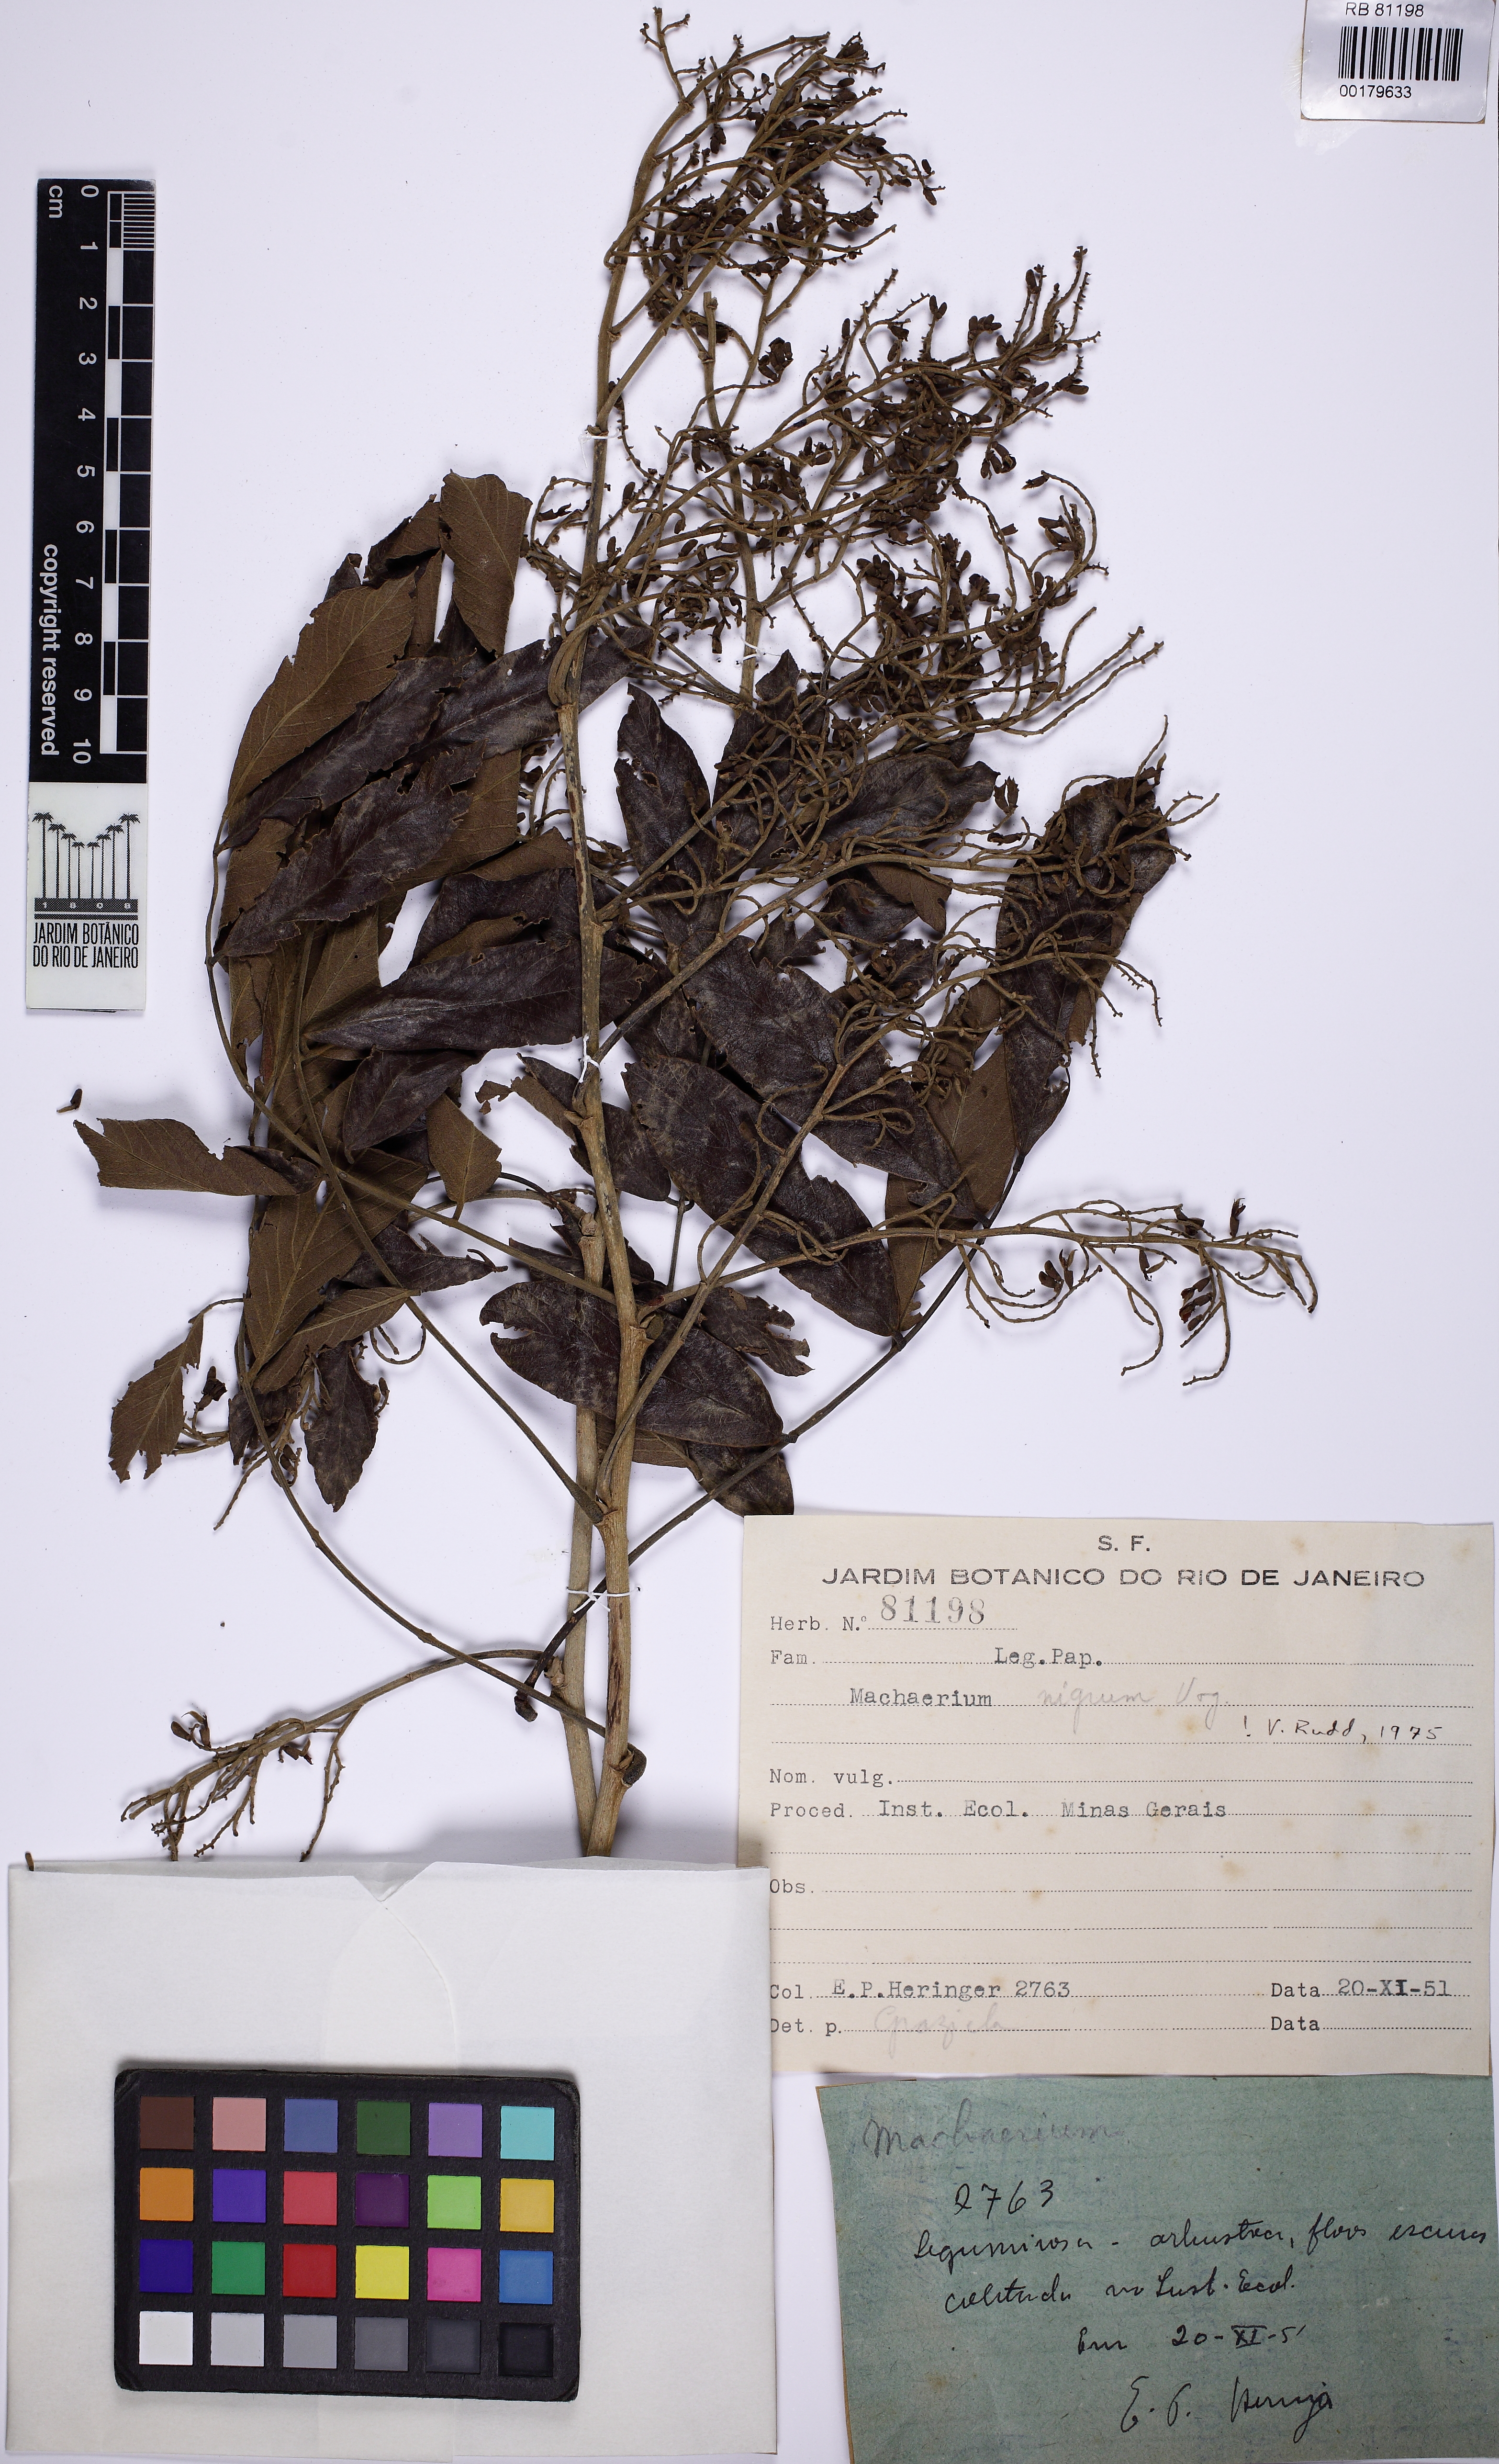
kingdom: Plantae
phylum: Tracheophyta
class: Magnoliopsida
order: Fabales
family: Fabaceae
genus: Machaerium
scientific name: Machaerium nigrum
